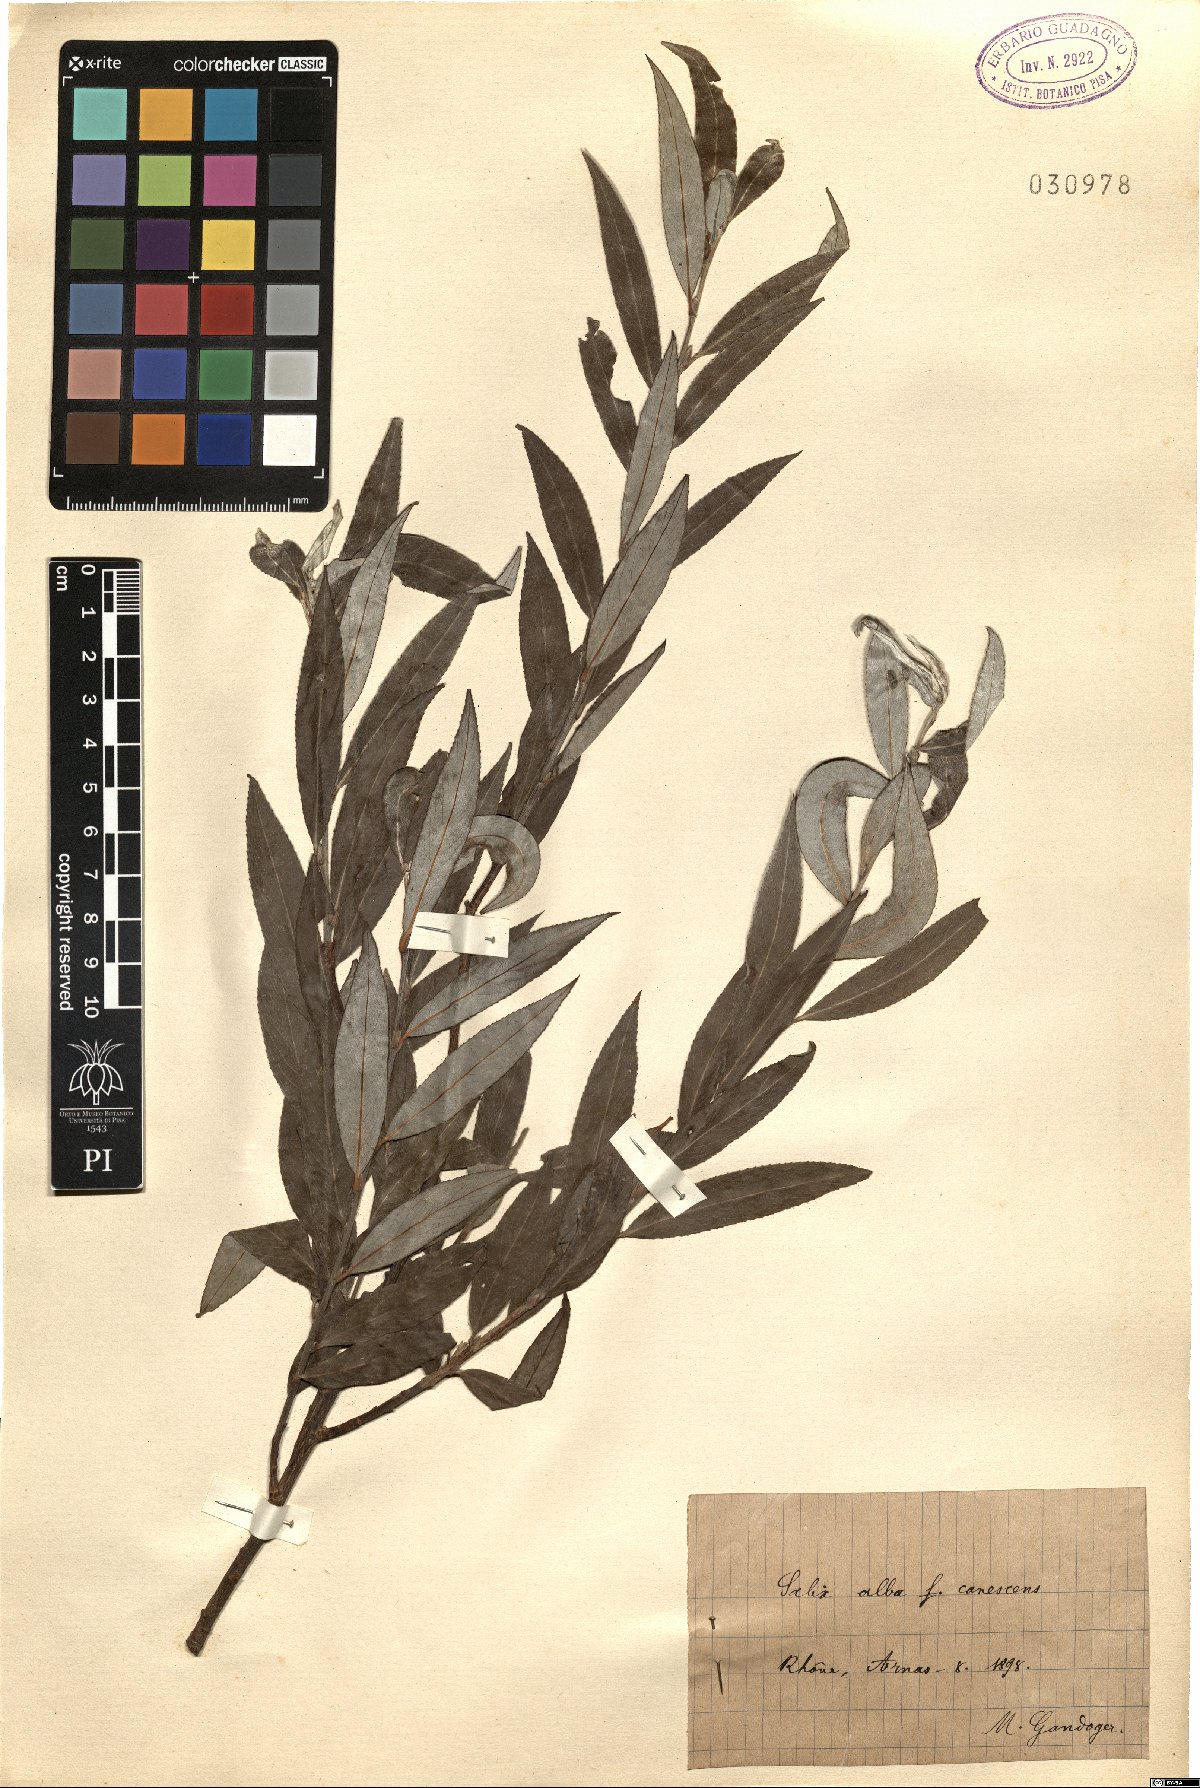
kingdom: Plantae
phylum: Tracheophyta
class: Magnoliopsida
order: Malpighiales
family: Salicaceae
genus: Salix
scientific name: Salix alba
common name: White willow
